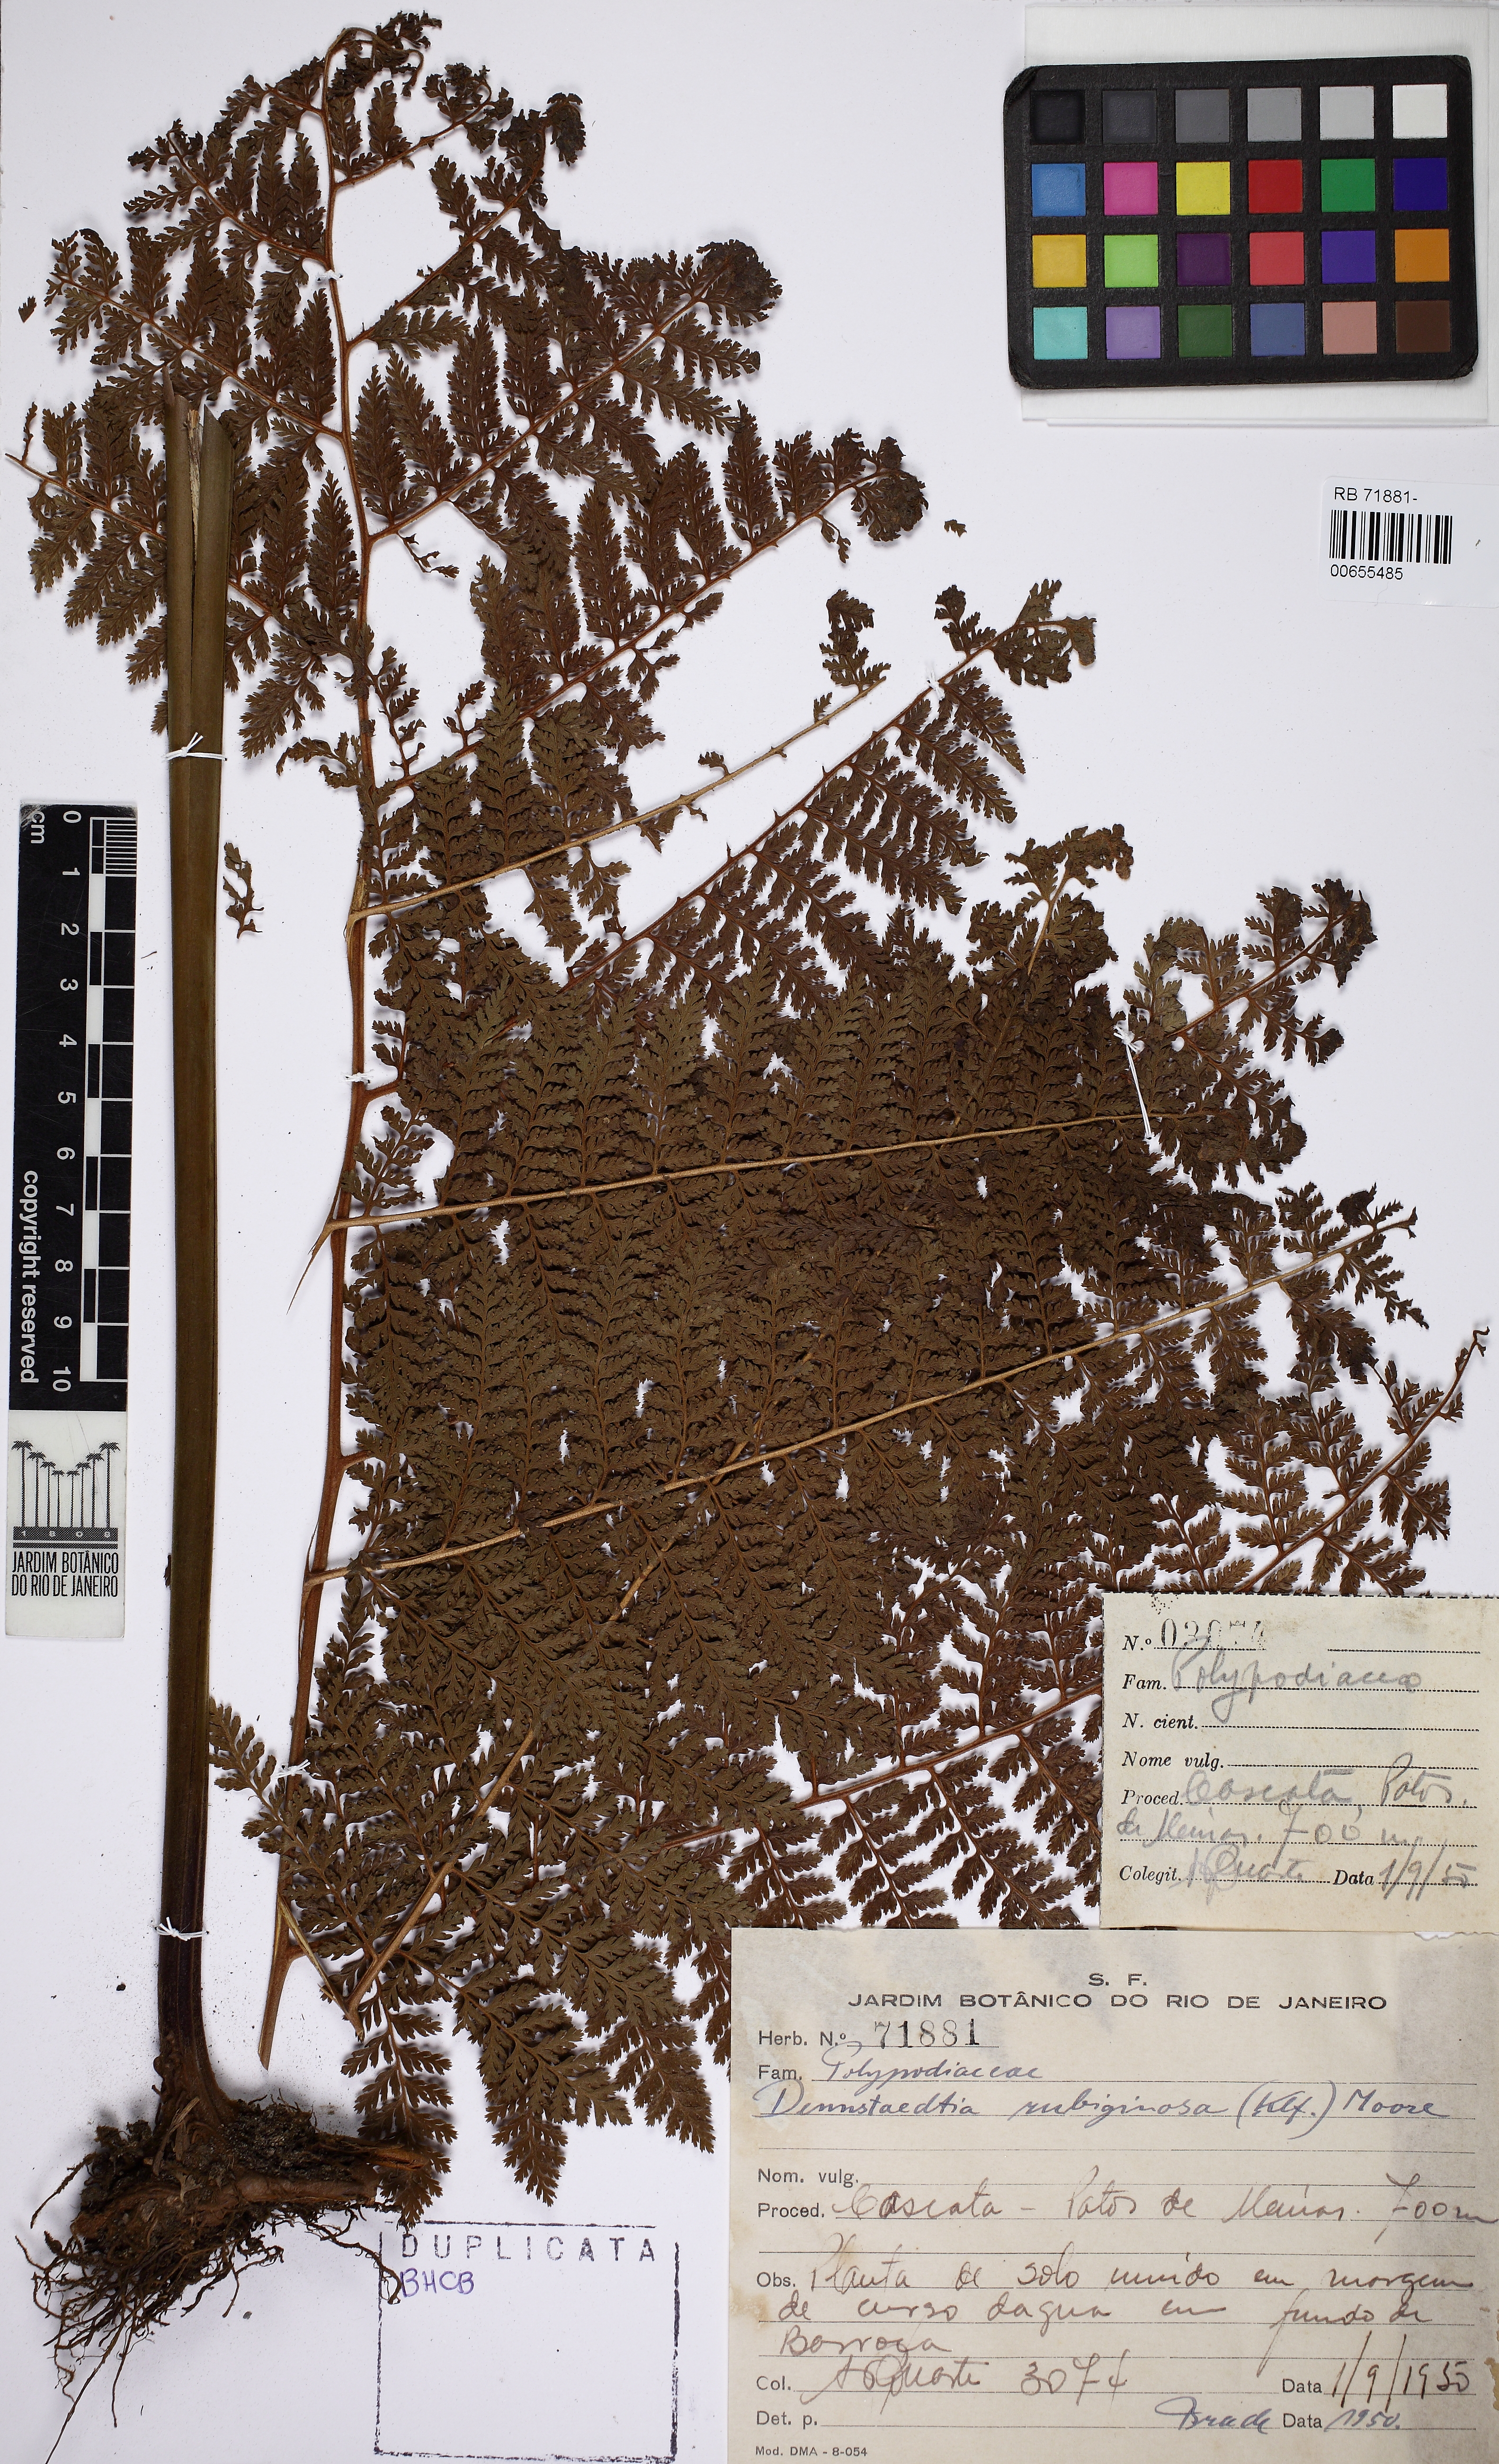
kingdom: Plantae
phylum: Tracheophyta
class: Polypodiopsida
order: Polypodiales
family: Dennstaedtiaceae
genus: Dennstaedtia
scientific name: Dennstaedtia cicutaria
